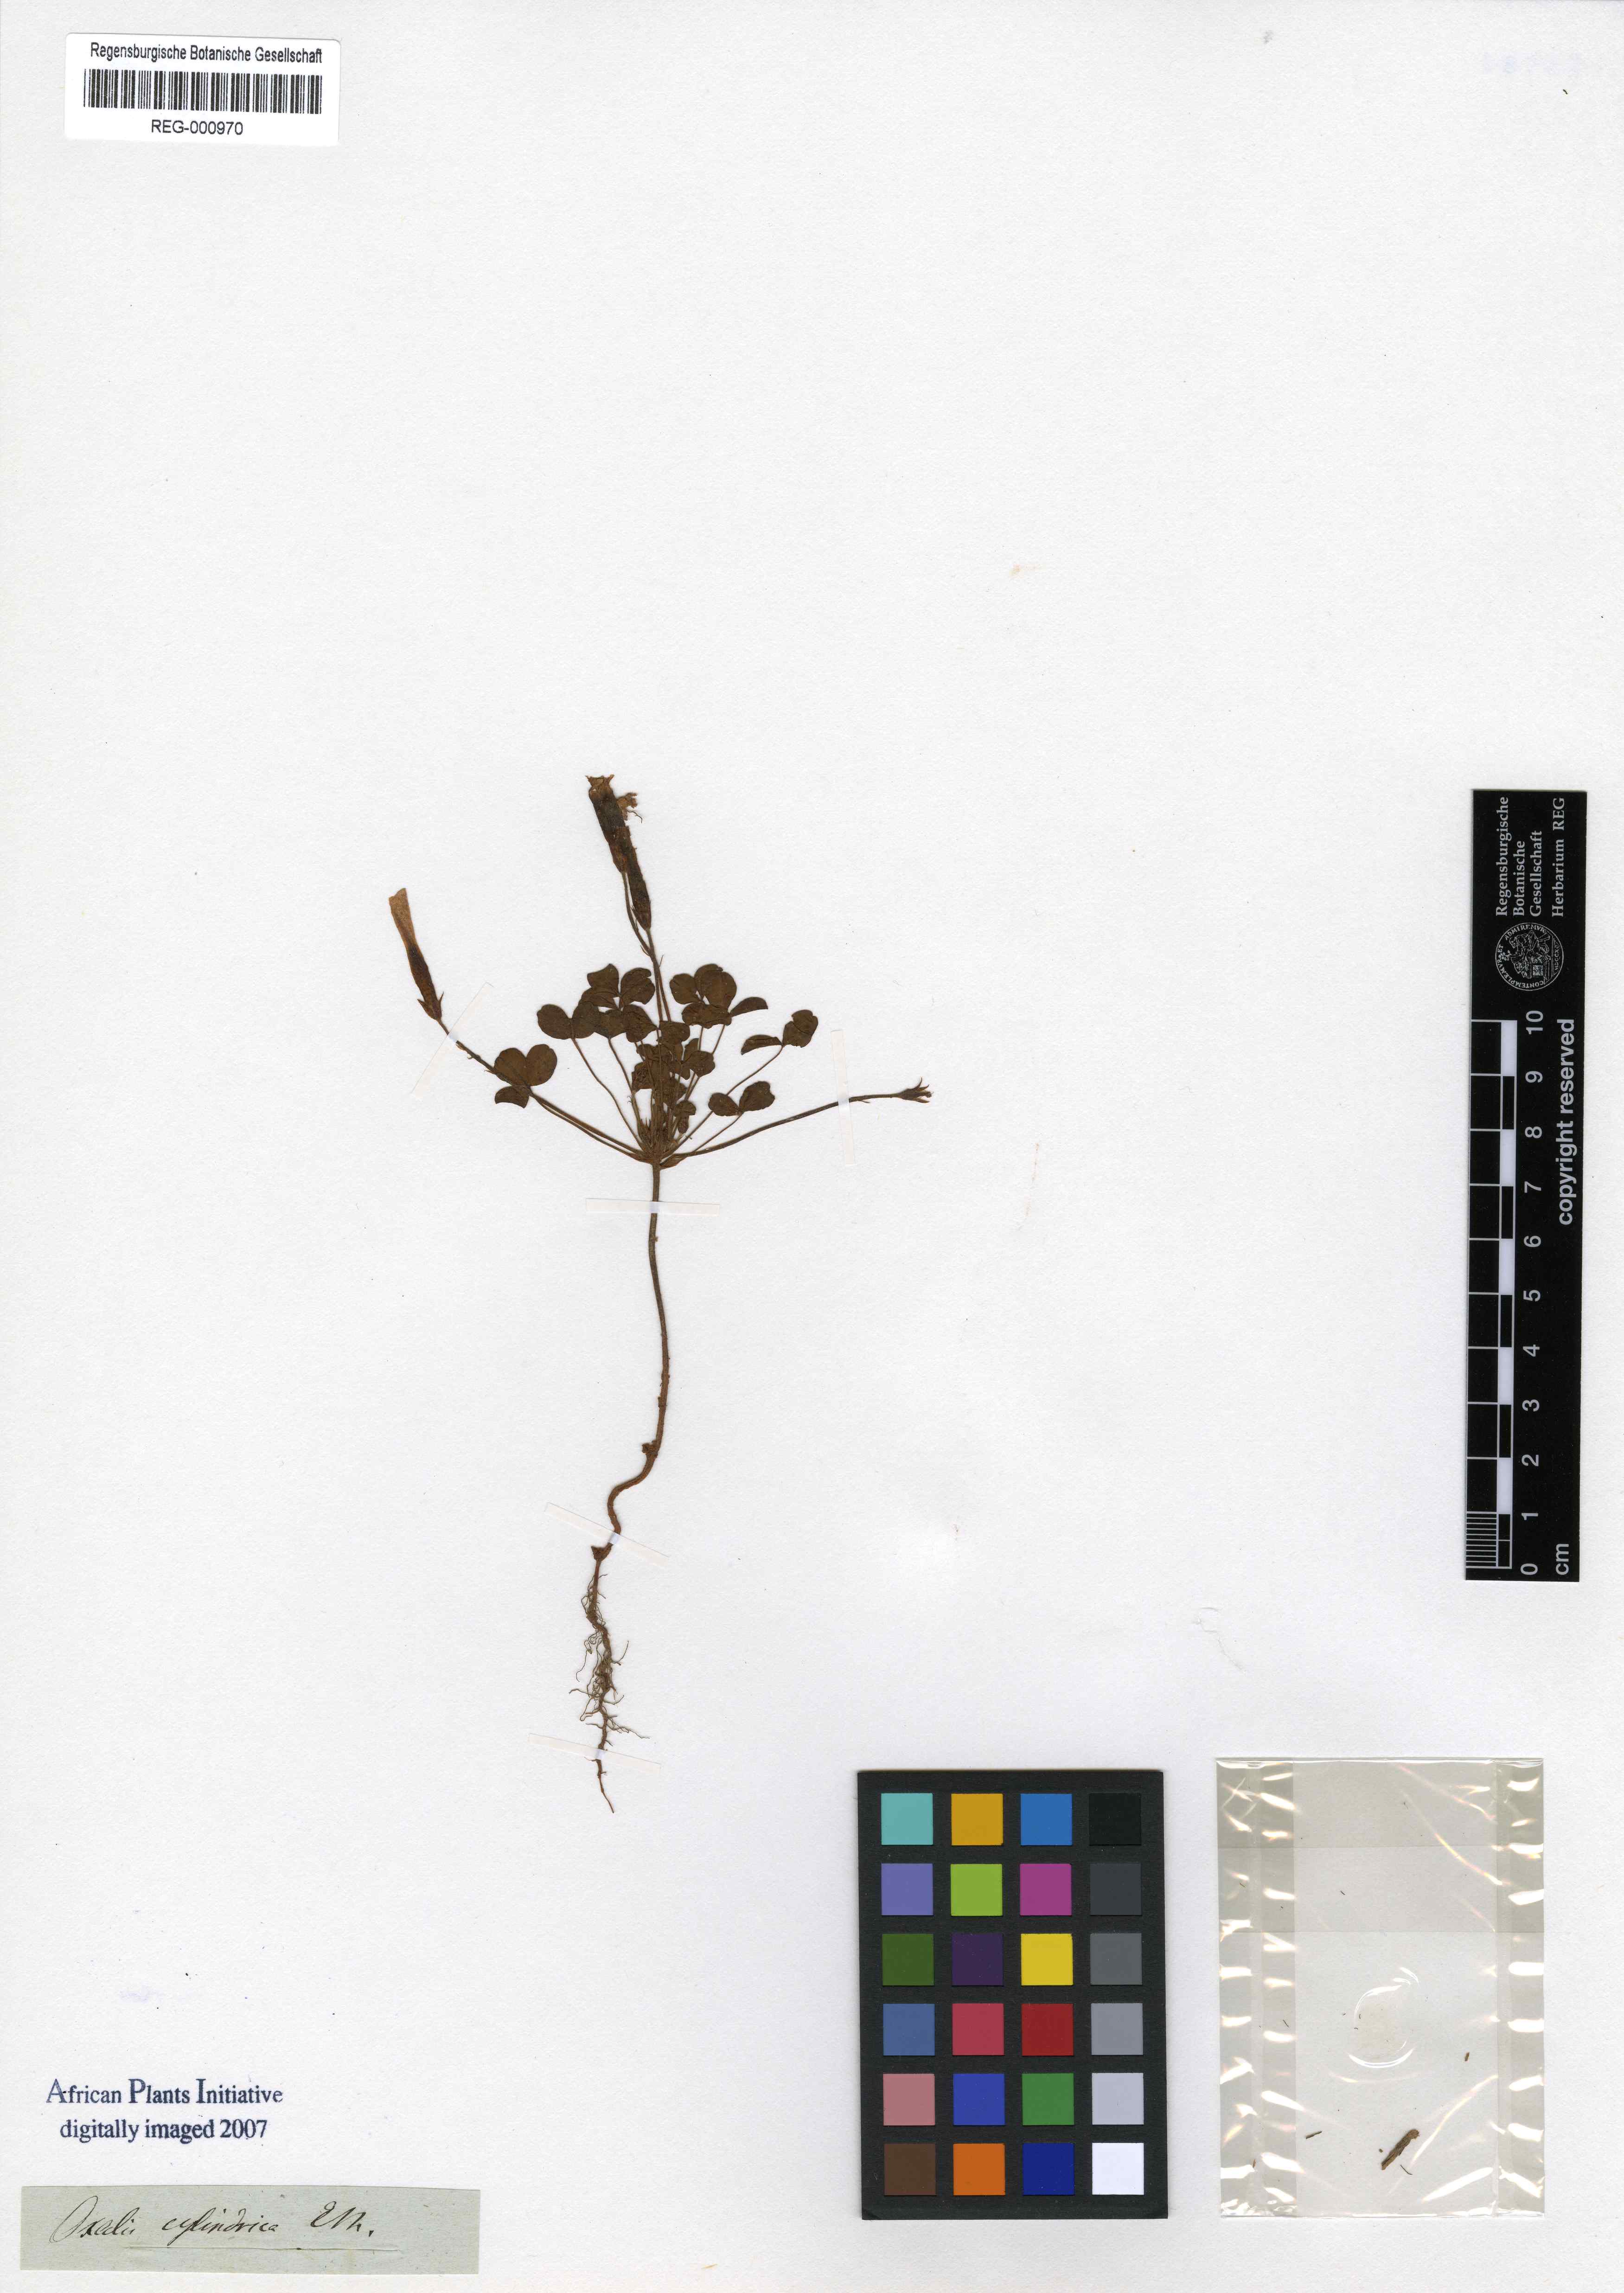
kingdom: Plantae
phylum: Tracheophyta
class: Magnoliopsida
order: Oxalidales
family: Oxalidaceae
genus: Oxalis
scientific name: Oxalis tenella
